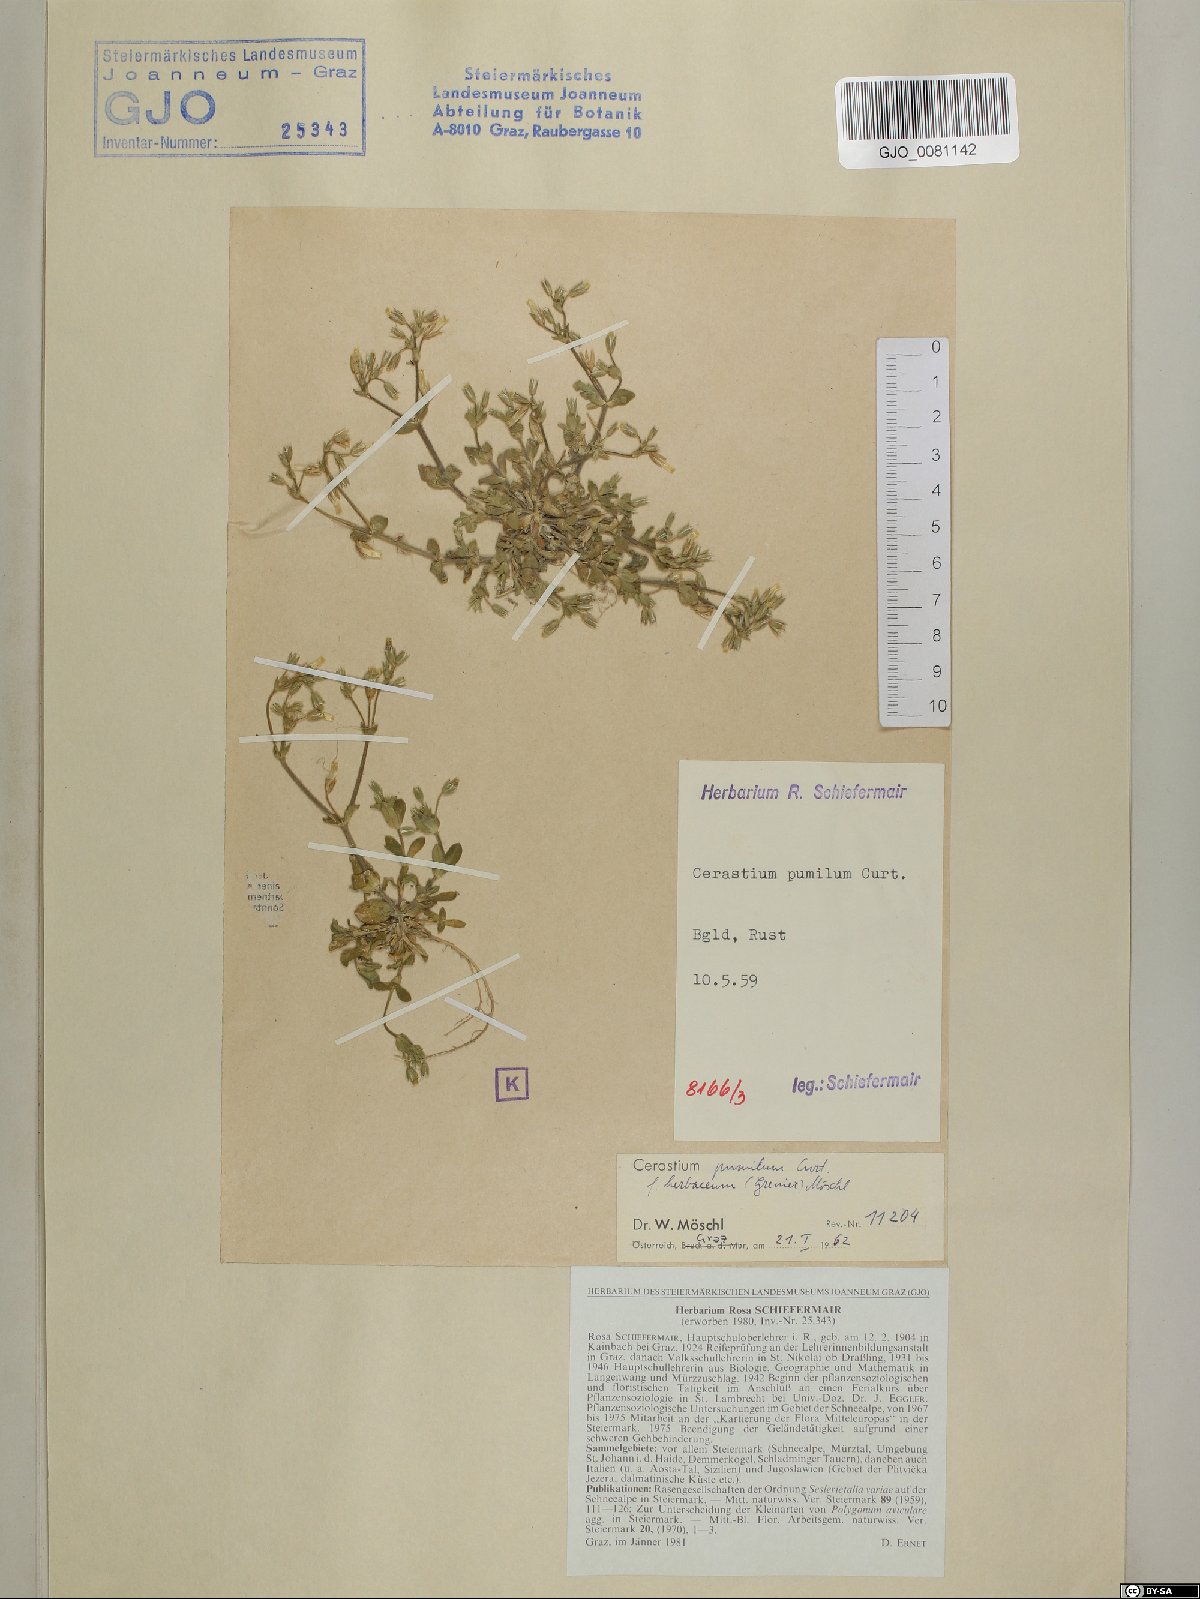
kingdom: Plantae
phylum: Tracheophyta
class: Magnoliopsida
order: Caryophyllales
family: Caryophyllaceae
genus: Cerastium
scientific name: Cerastium pumilum
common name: Dwarf mouse-ear
